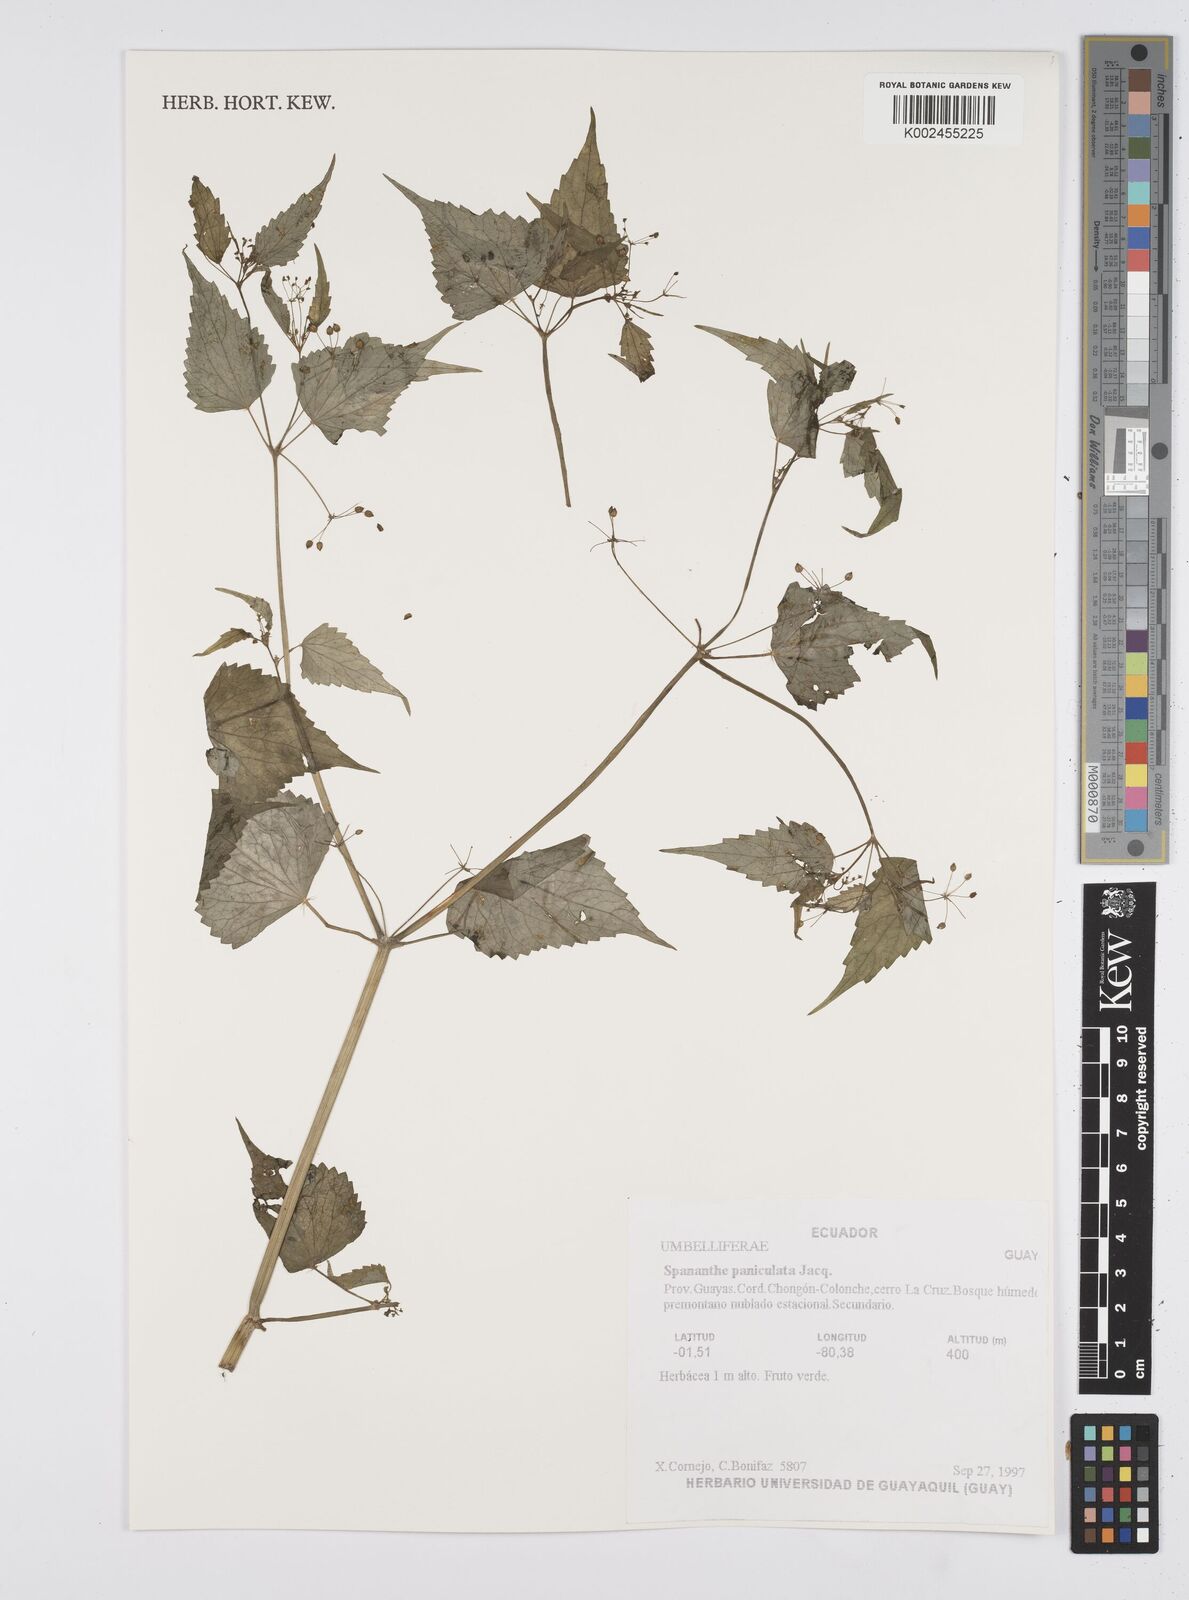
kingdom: Plantae
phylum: Tracheophyta
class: Magnoliopsida
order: Apiales
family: Apiaceae
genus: Azorella
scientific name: Azorella
